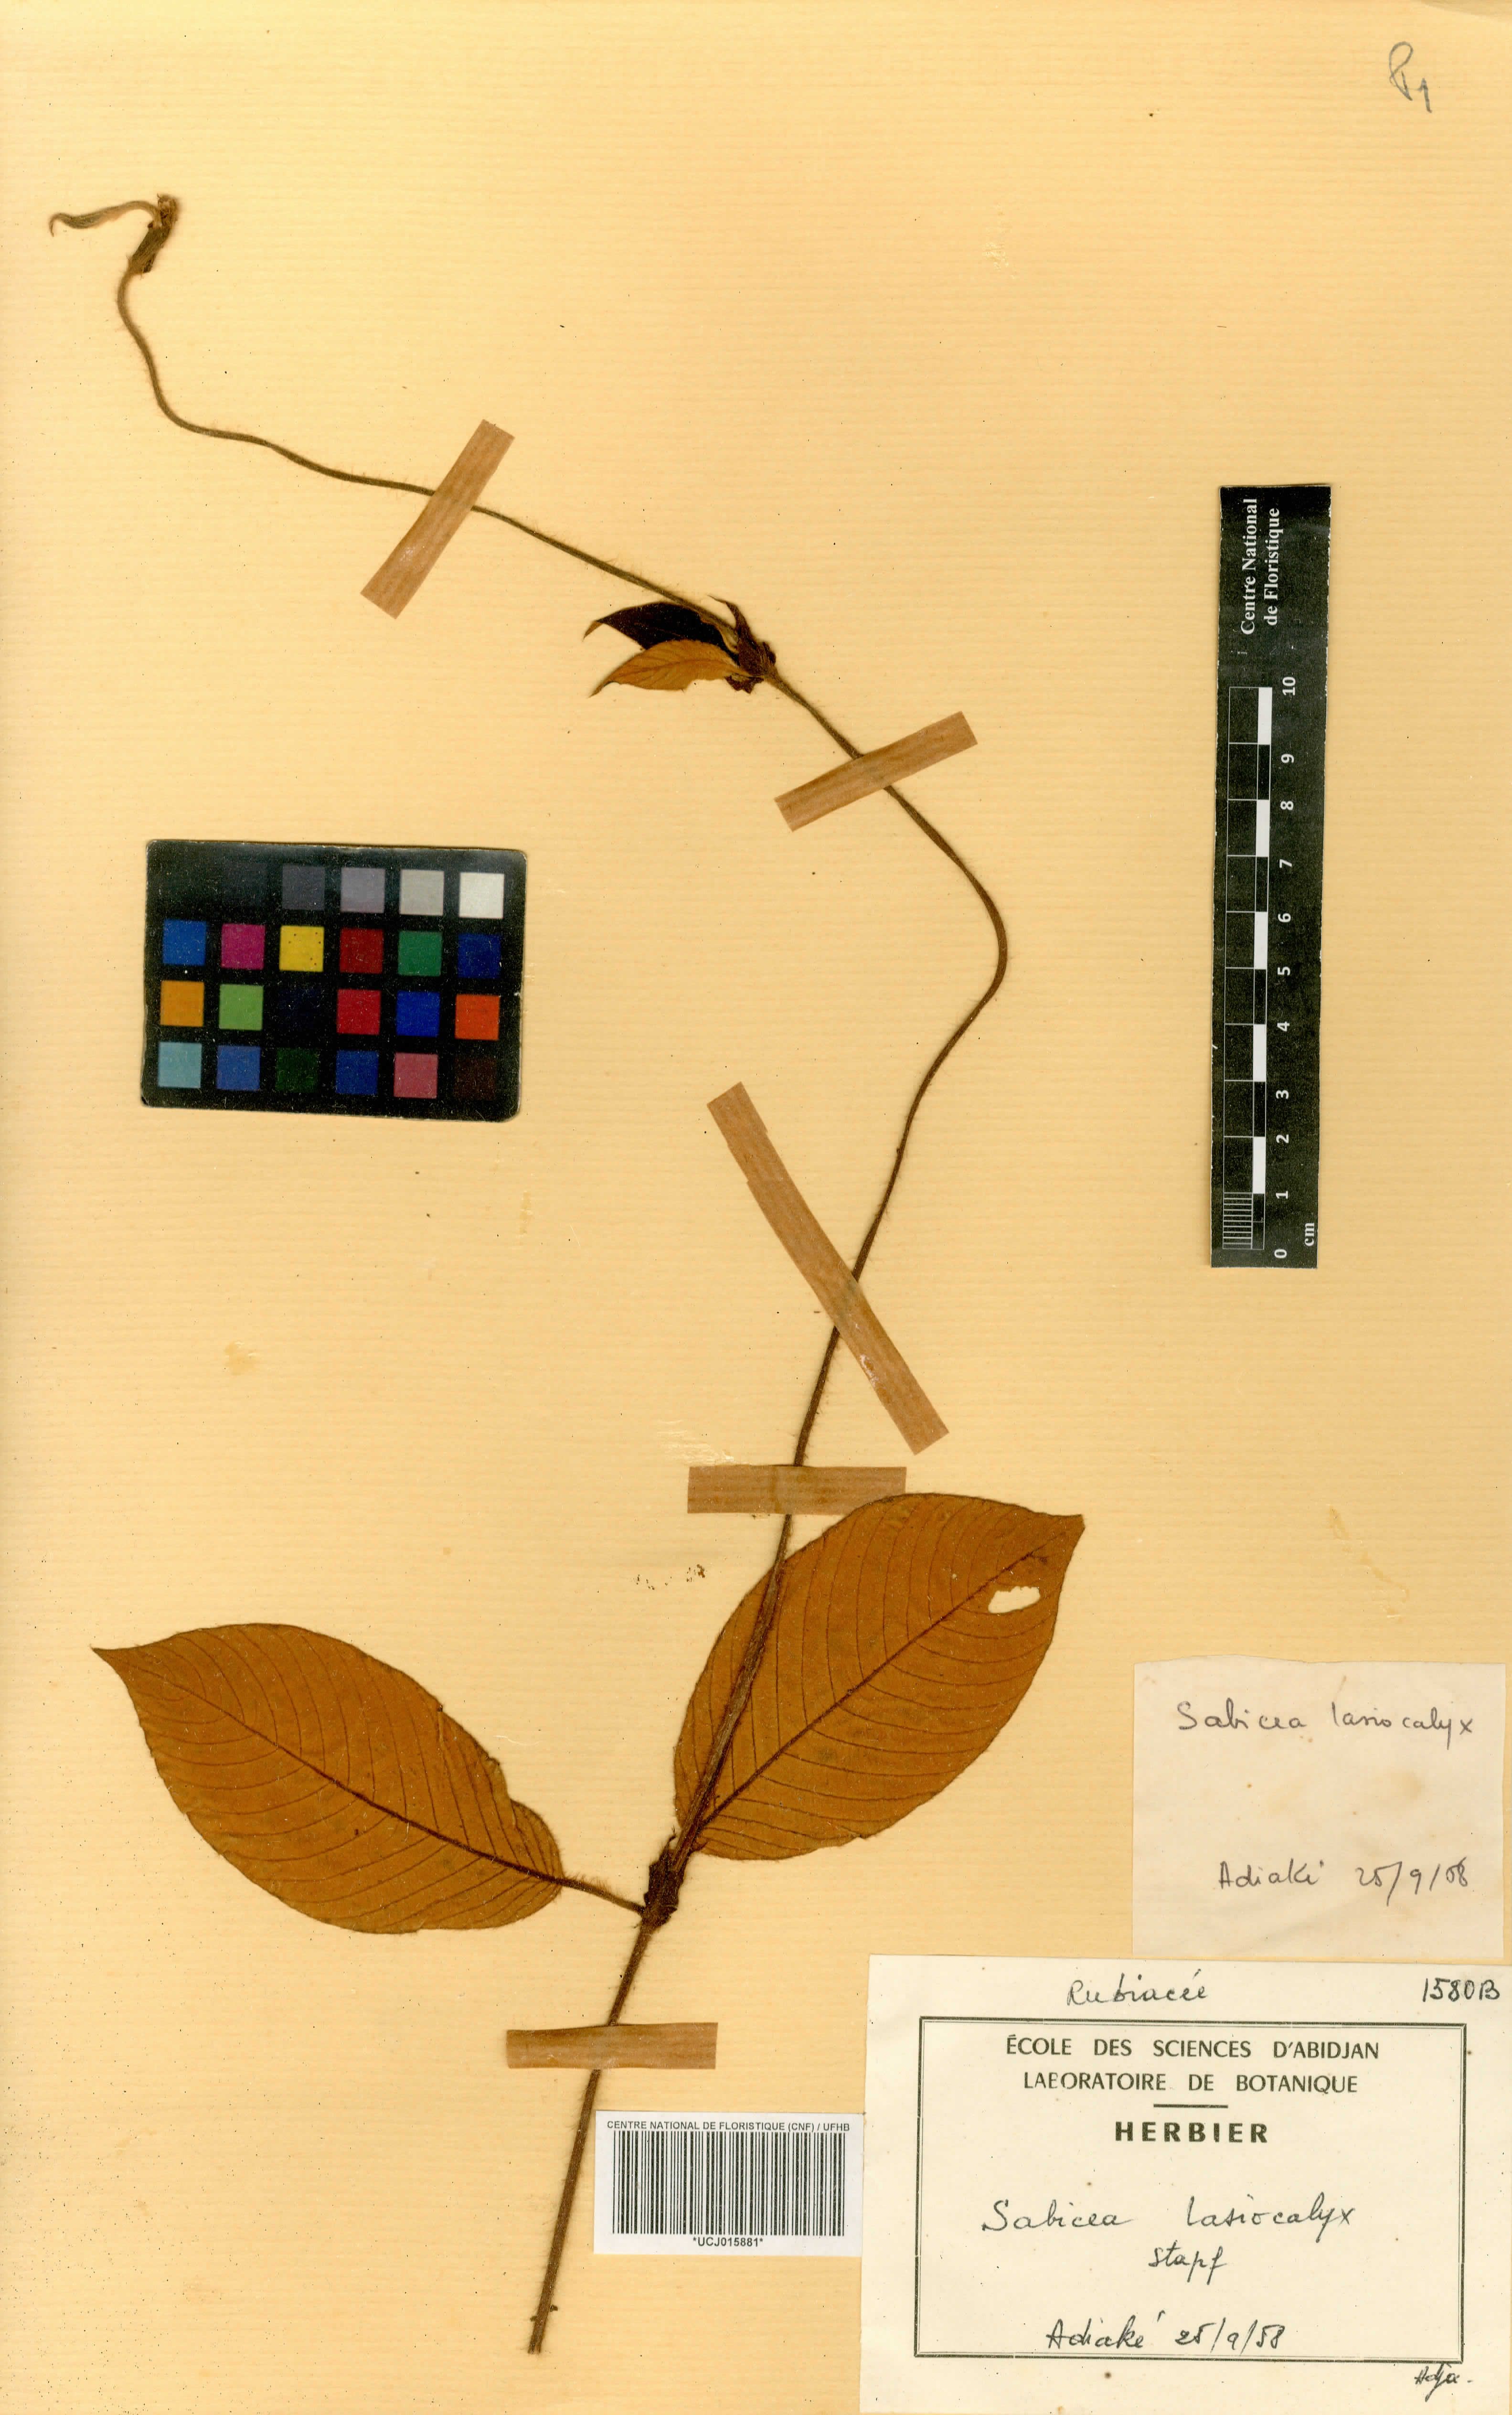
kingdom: Plantae
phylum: Tracheophyta
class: Magnoliopsida
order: Gentianales
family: Rubiaceae
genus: Sabicea
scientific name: Sabicea ferruginea
